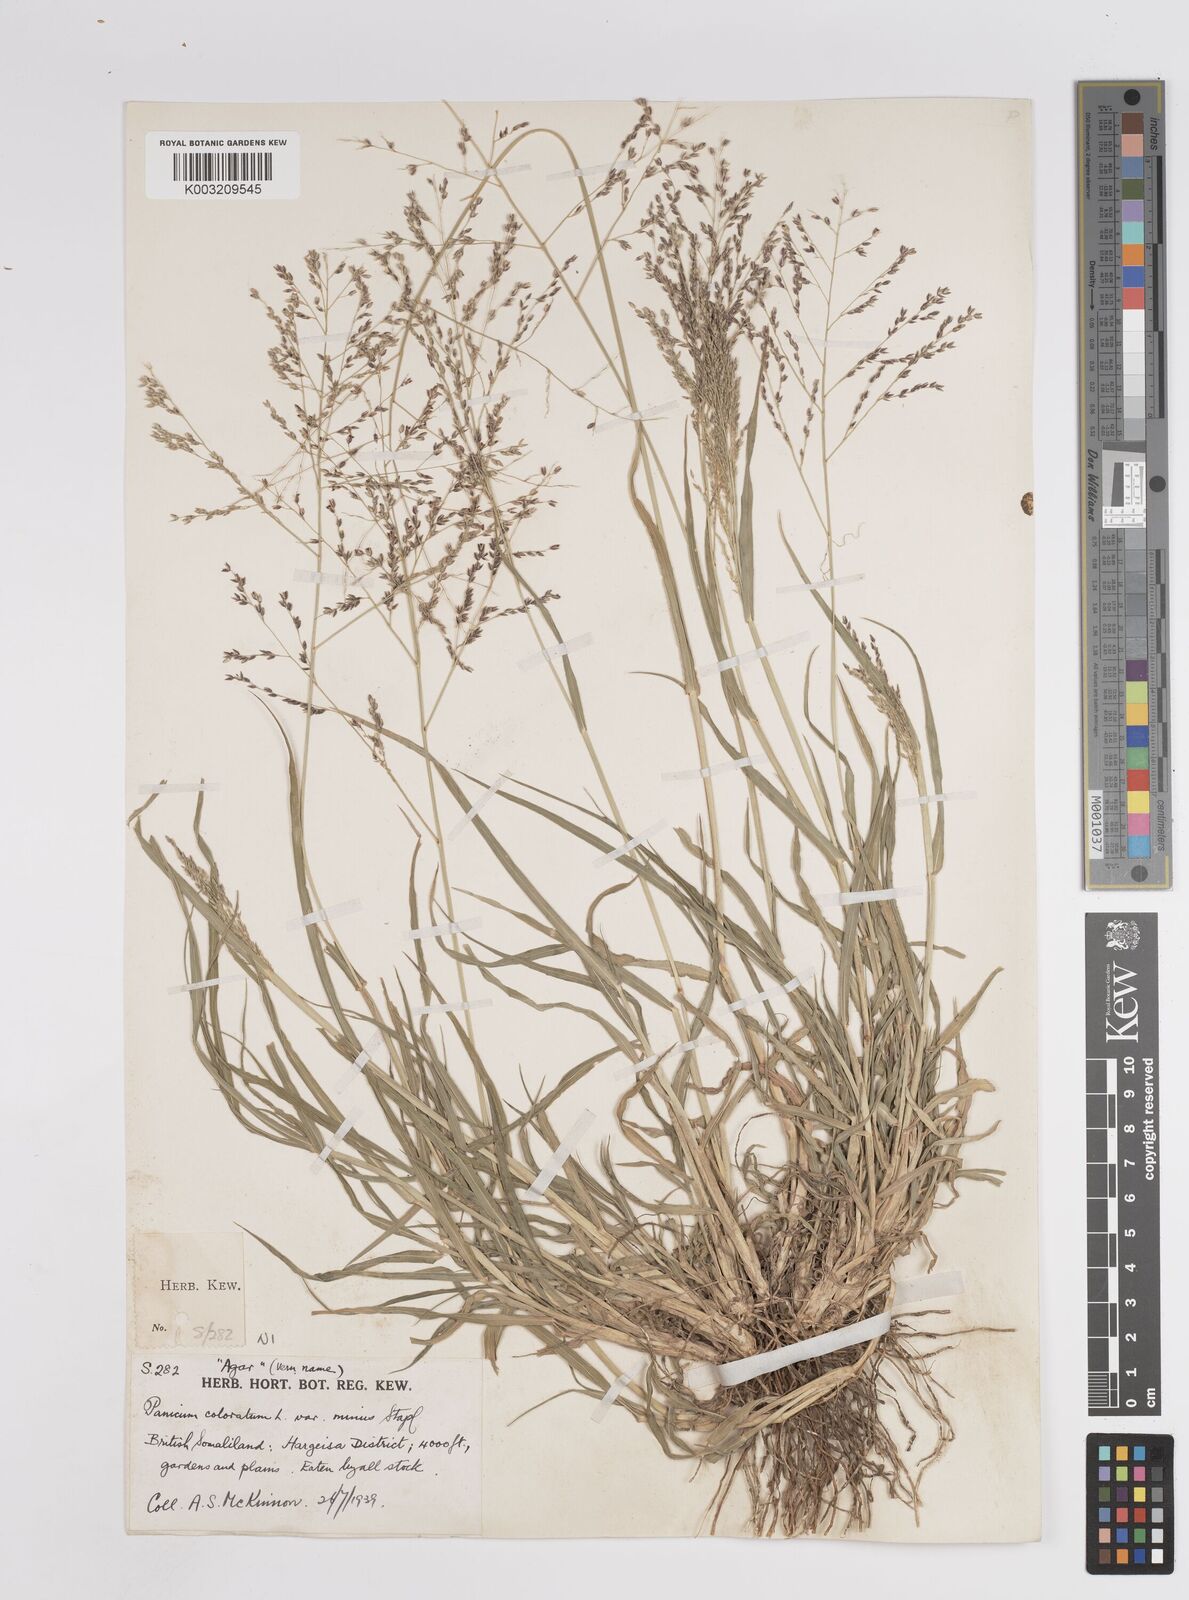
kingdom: Plantae
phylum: Tracheophyta
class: Liliopsida
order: Poales
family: Poaceae
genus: Panicum
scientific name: Panicum coloratum
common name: Kleingrass
